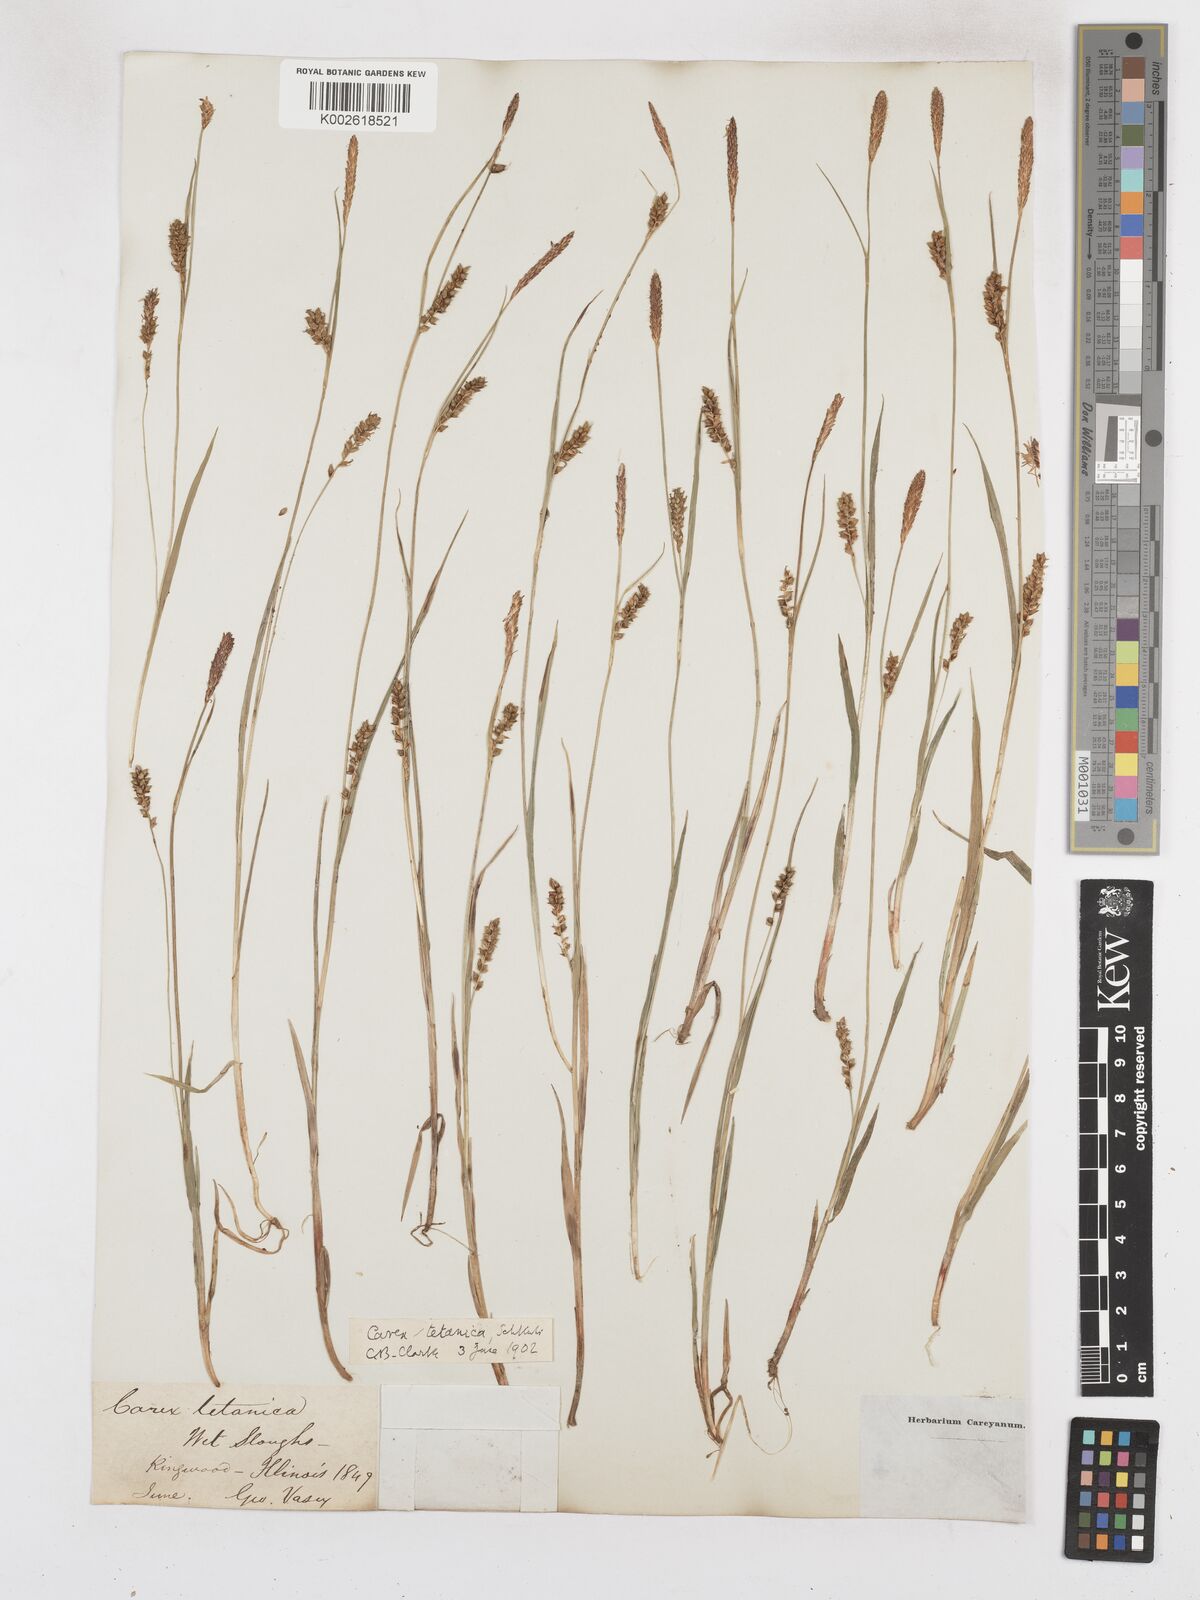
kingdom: Plantae
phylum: Tracheophyta
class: Liliopsida
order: Poales
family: Cyperaceae
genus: Carex
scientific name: Carex tetanica
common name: Rigid sedge
